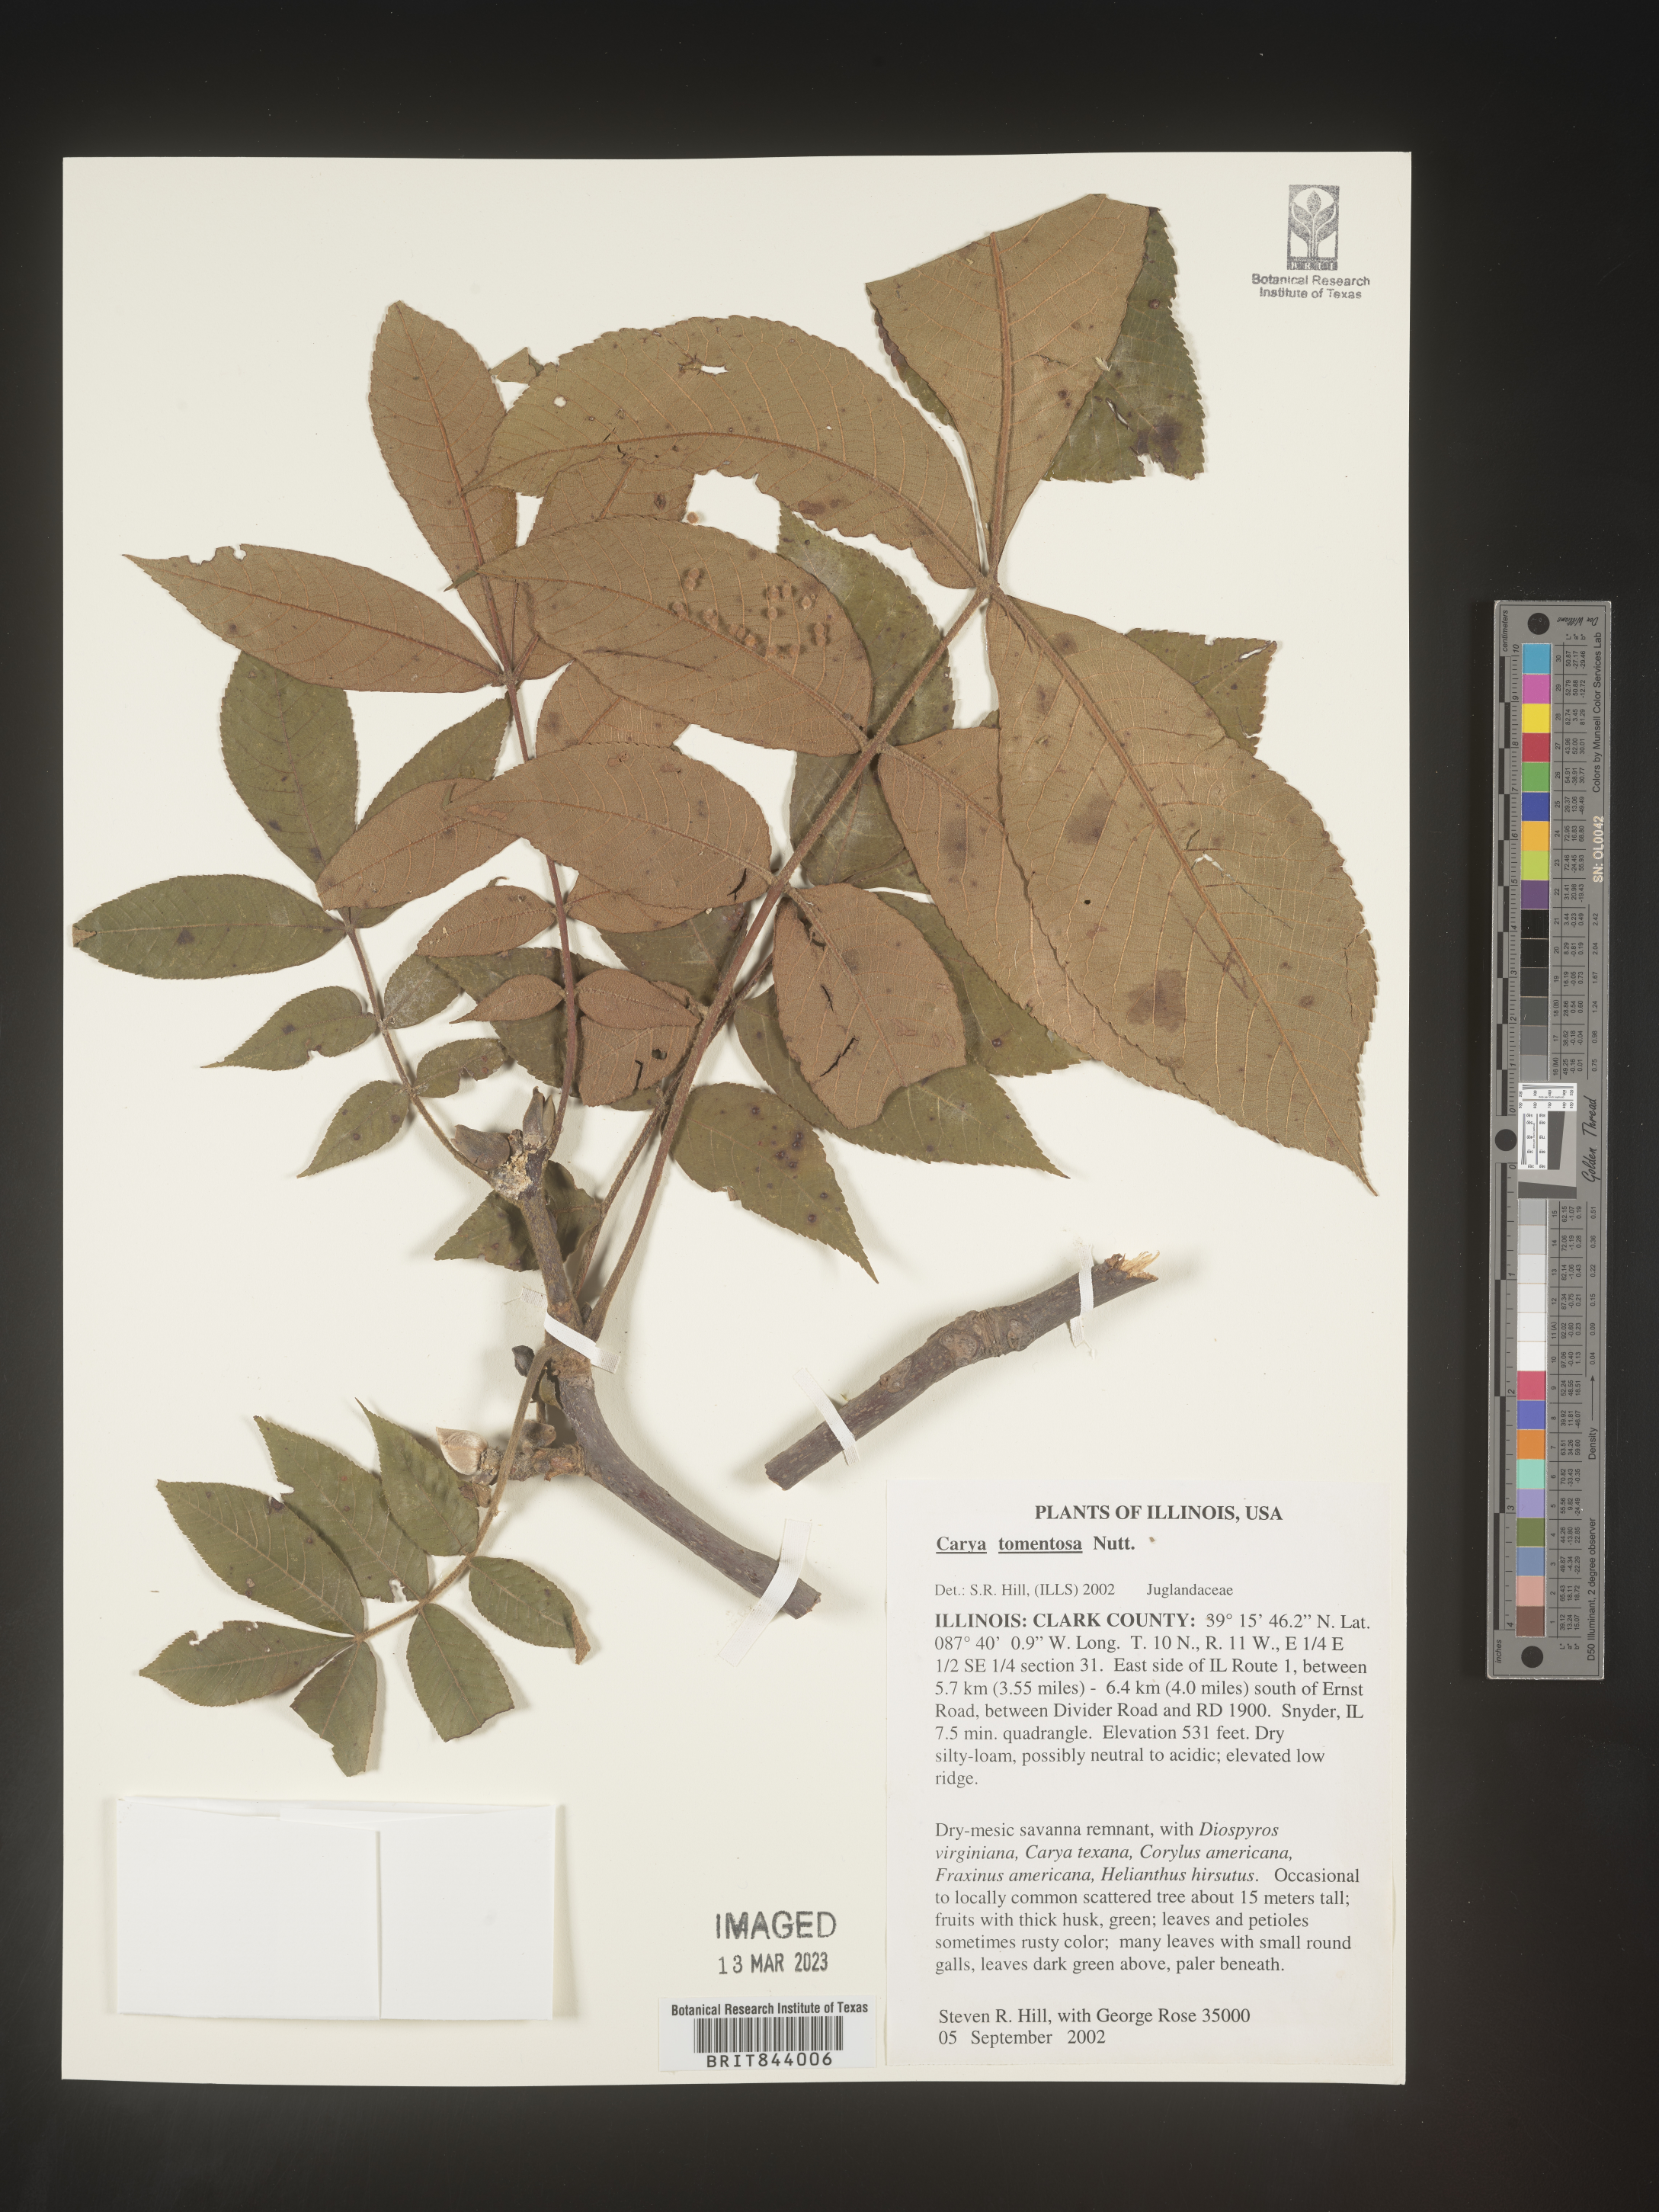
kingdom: Plantae
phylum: Tracheophyta
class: Magnoliopsida
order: Fagales
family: Juglandaceae
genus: Carya
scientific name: Carya alba
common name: Mockernut hickory
